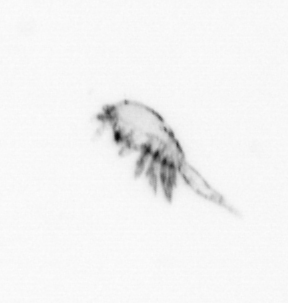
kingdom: Animalia
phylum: Arthropoda
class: Copepoda
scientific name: Copepoda
